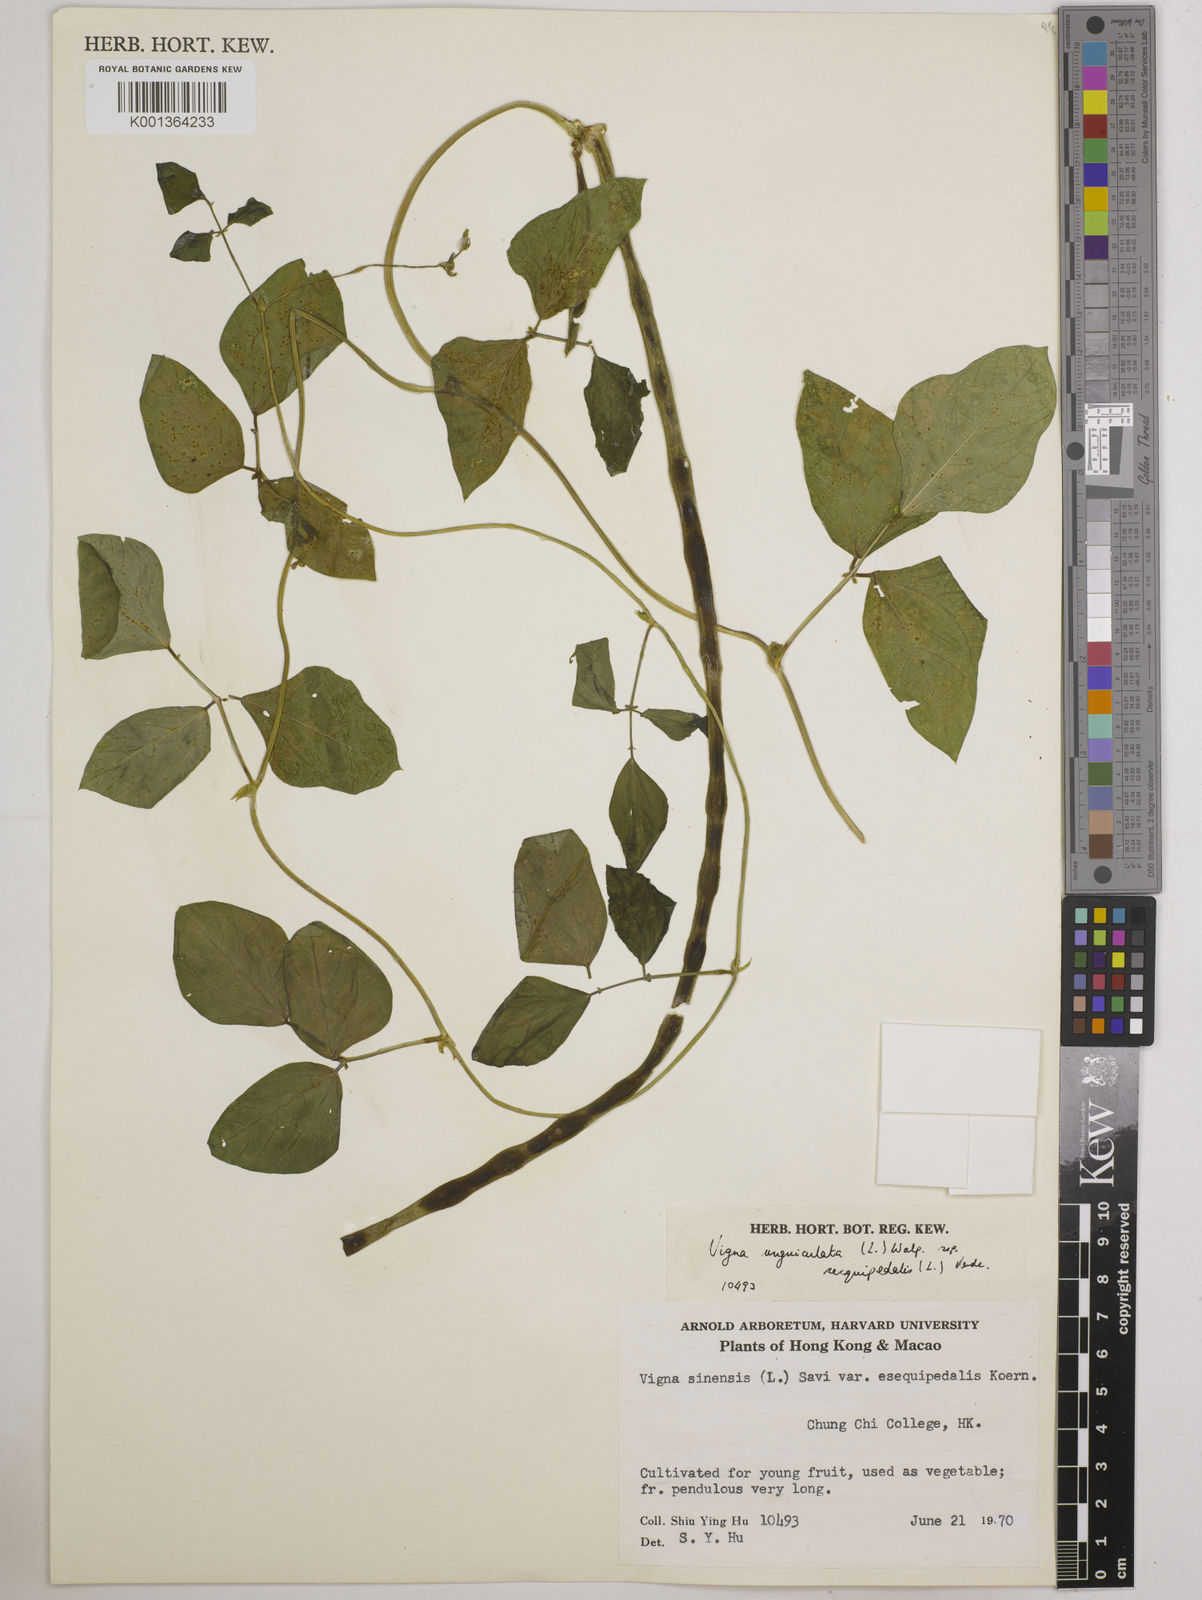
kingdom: Plantae
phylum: Tracheophyta
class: Magnoliopsida
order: Fabales
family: Fabaceae
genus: Vigna
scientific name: Vigna unguiculata
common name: Cowpea
